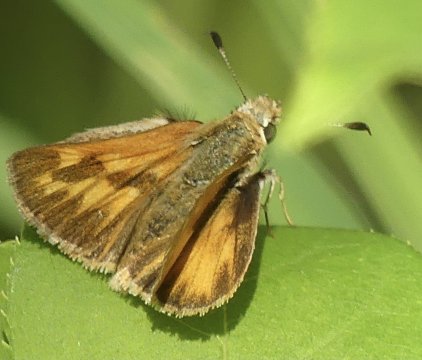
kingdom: Animalia
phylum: Arthropoda
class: Insecta
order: Lepidoptera
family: Hesperiidae
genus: Ochlodes
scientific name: Ochlodes sylvanoides
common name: Woodland Skipper
